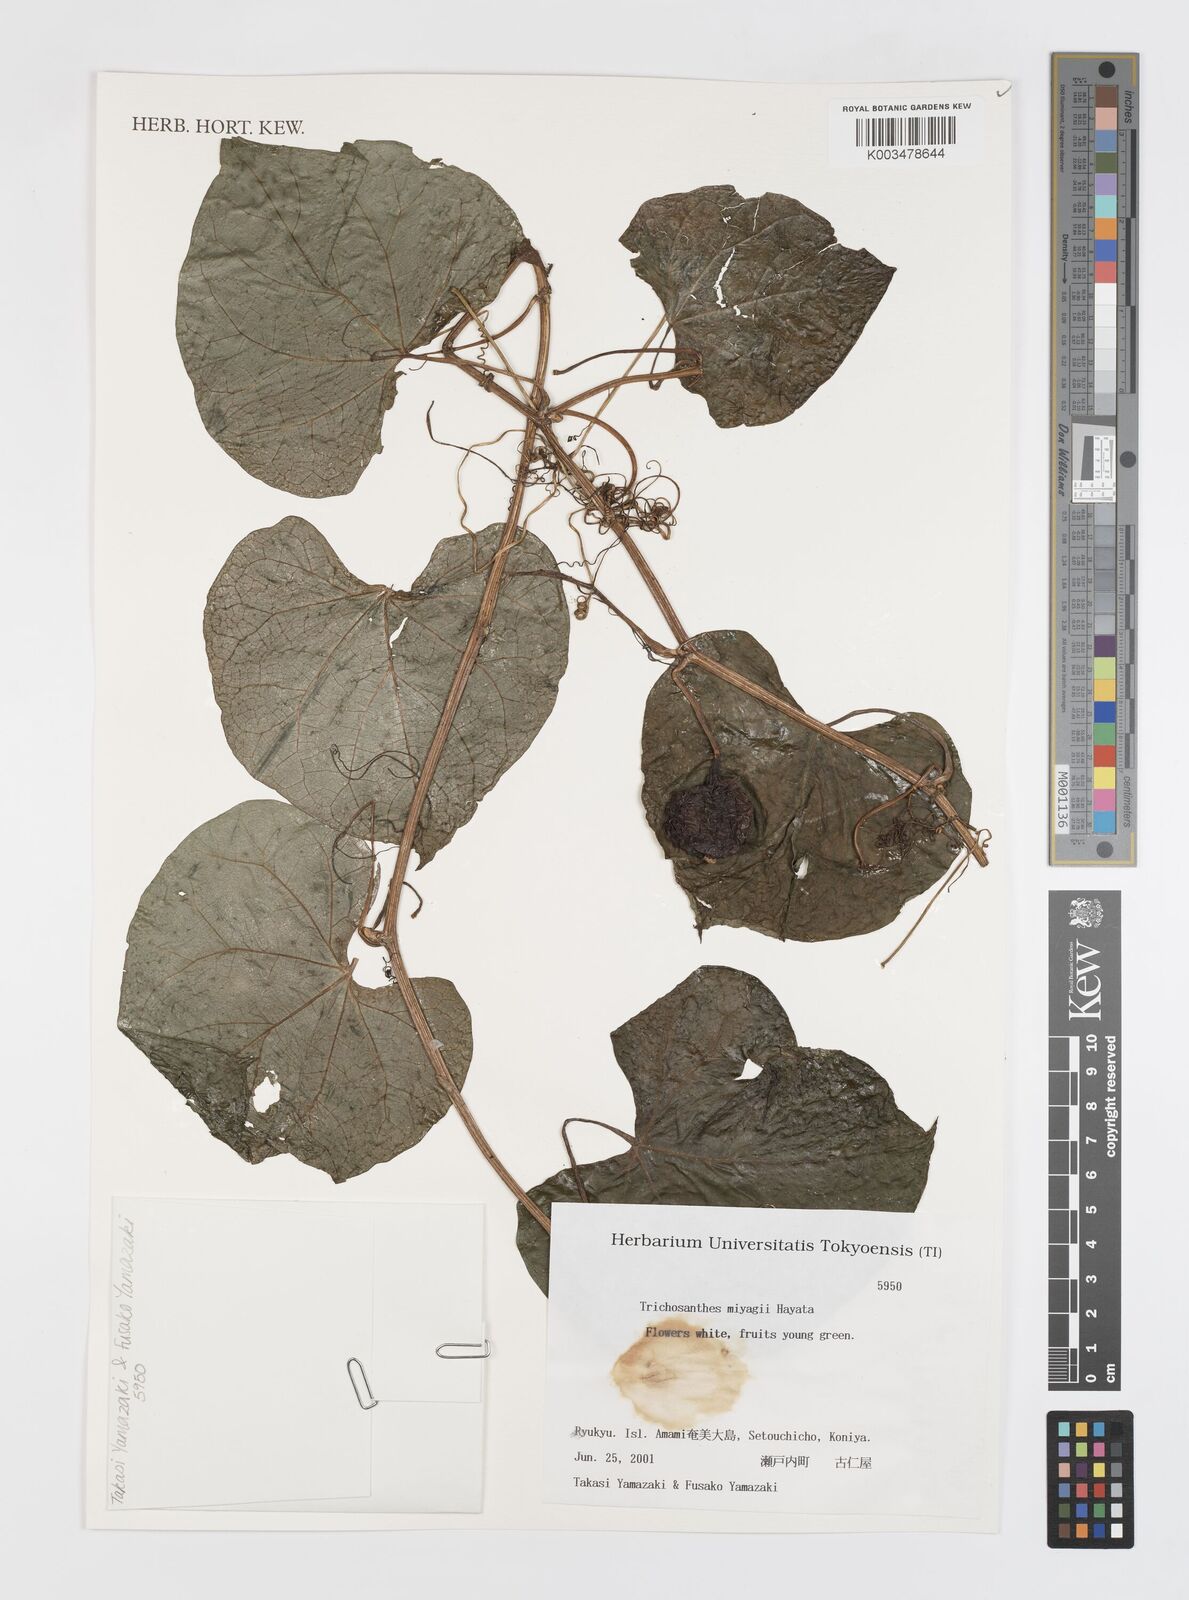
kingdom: Plantae
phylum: Tracheophyta
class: Magnoliopsida
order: Cucurbitales
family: Cucurbitaceae
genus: Trichosanthes
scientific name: Trichosanthes miyagii
